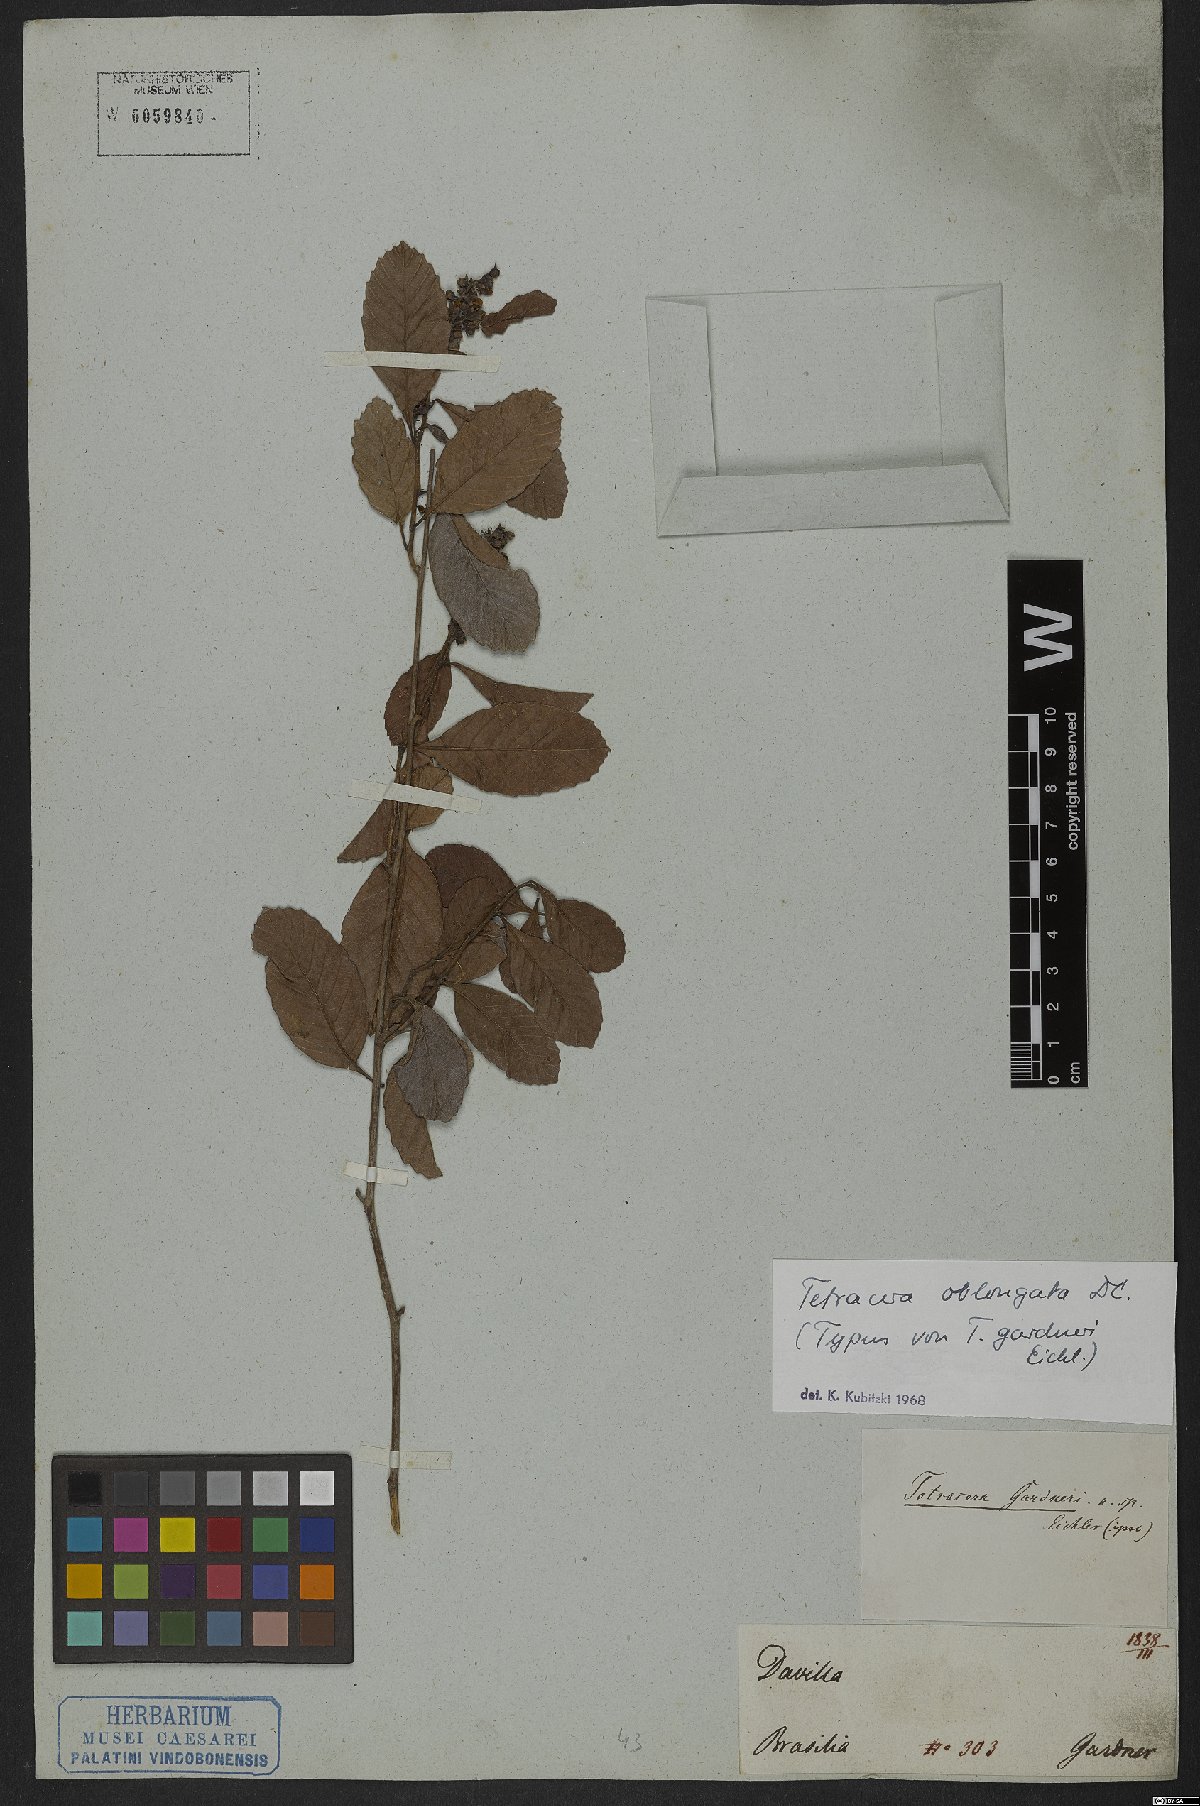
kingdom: Plantae
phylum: Tracheophyta
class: Magnoliopsida
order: Dilleniales
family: Dilleniaceae
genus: Tetracera
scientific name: Tetracera oblongata
